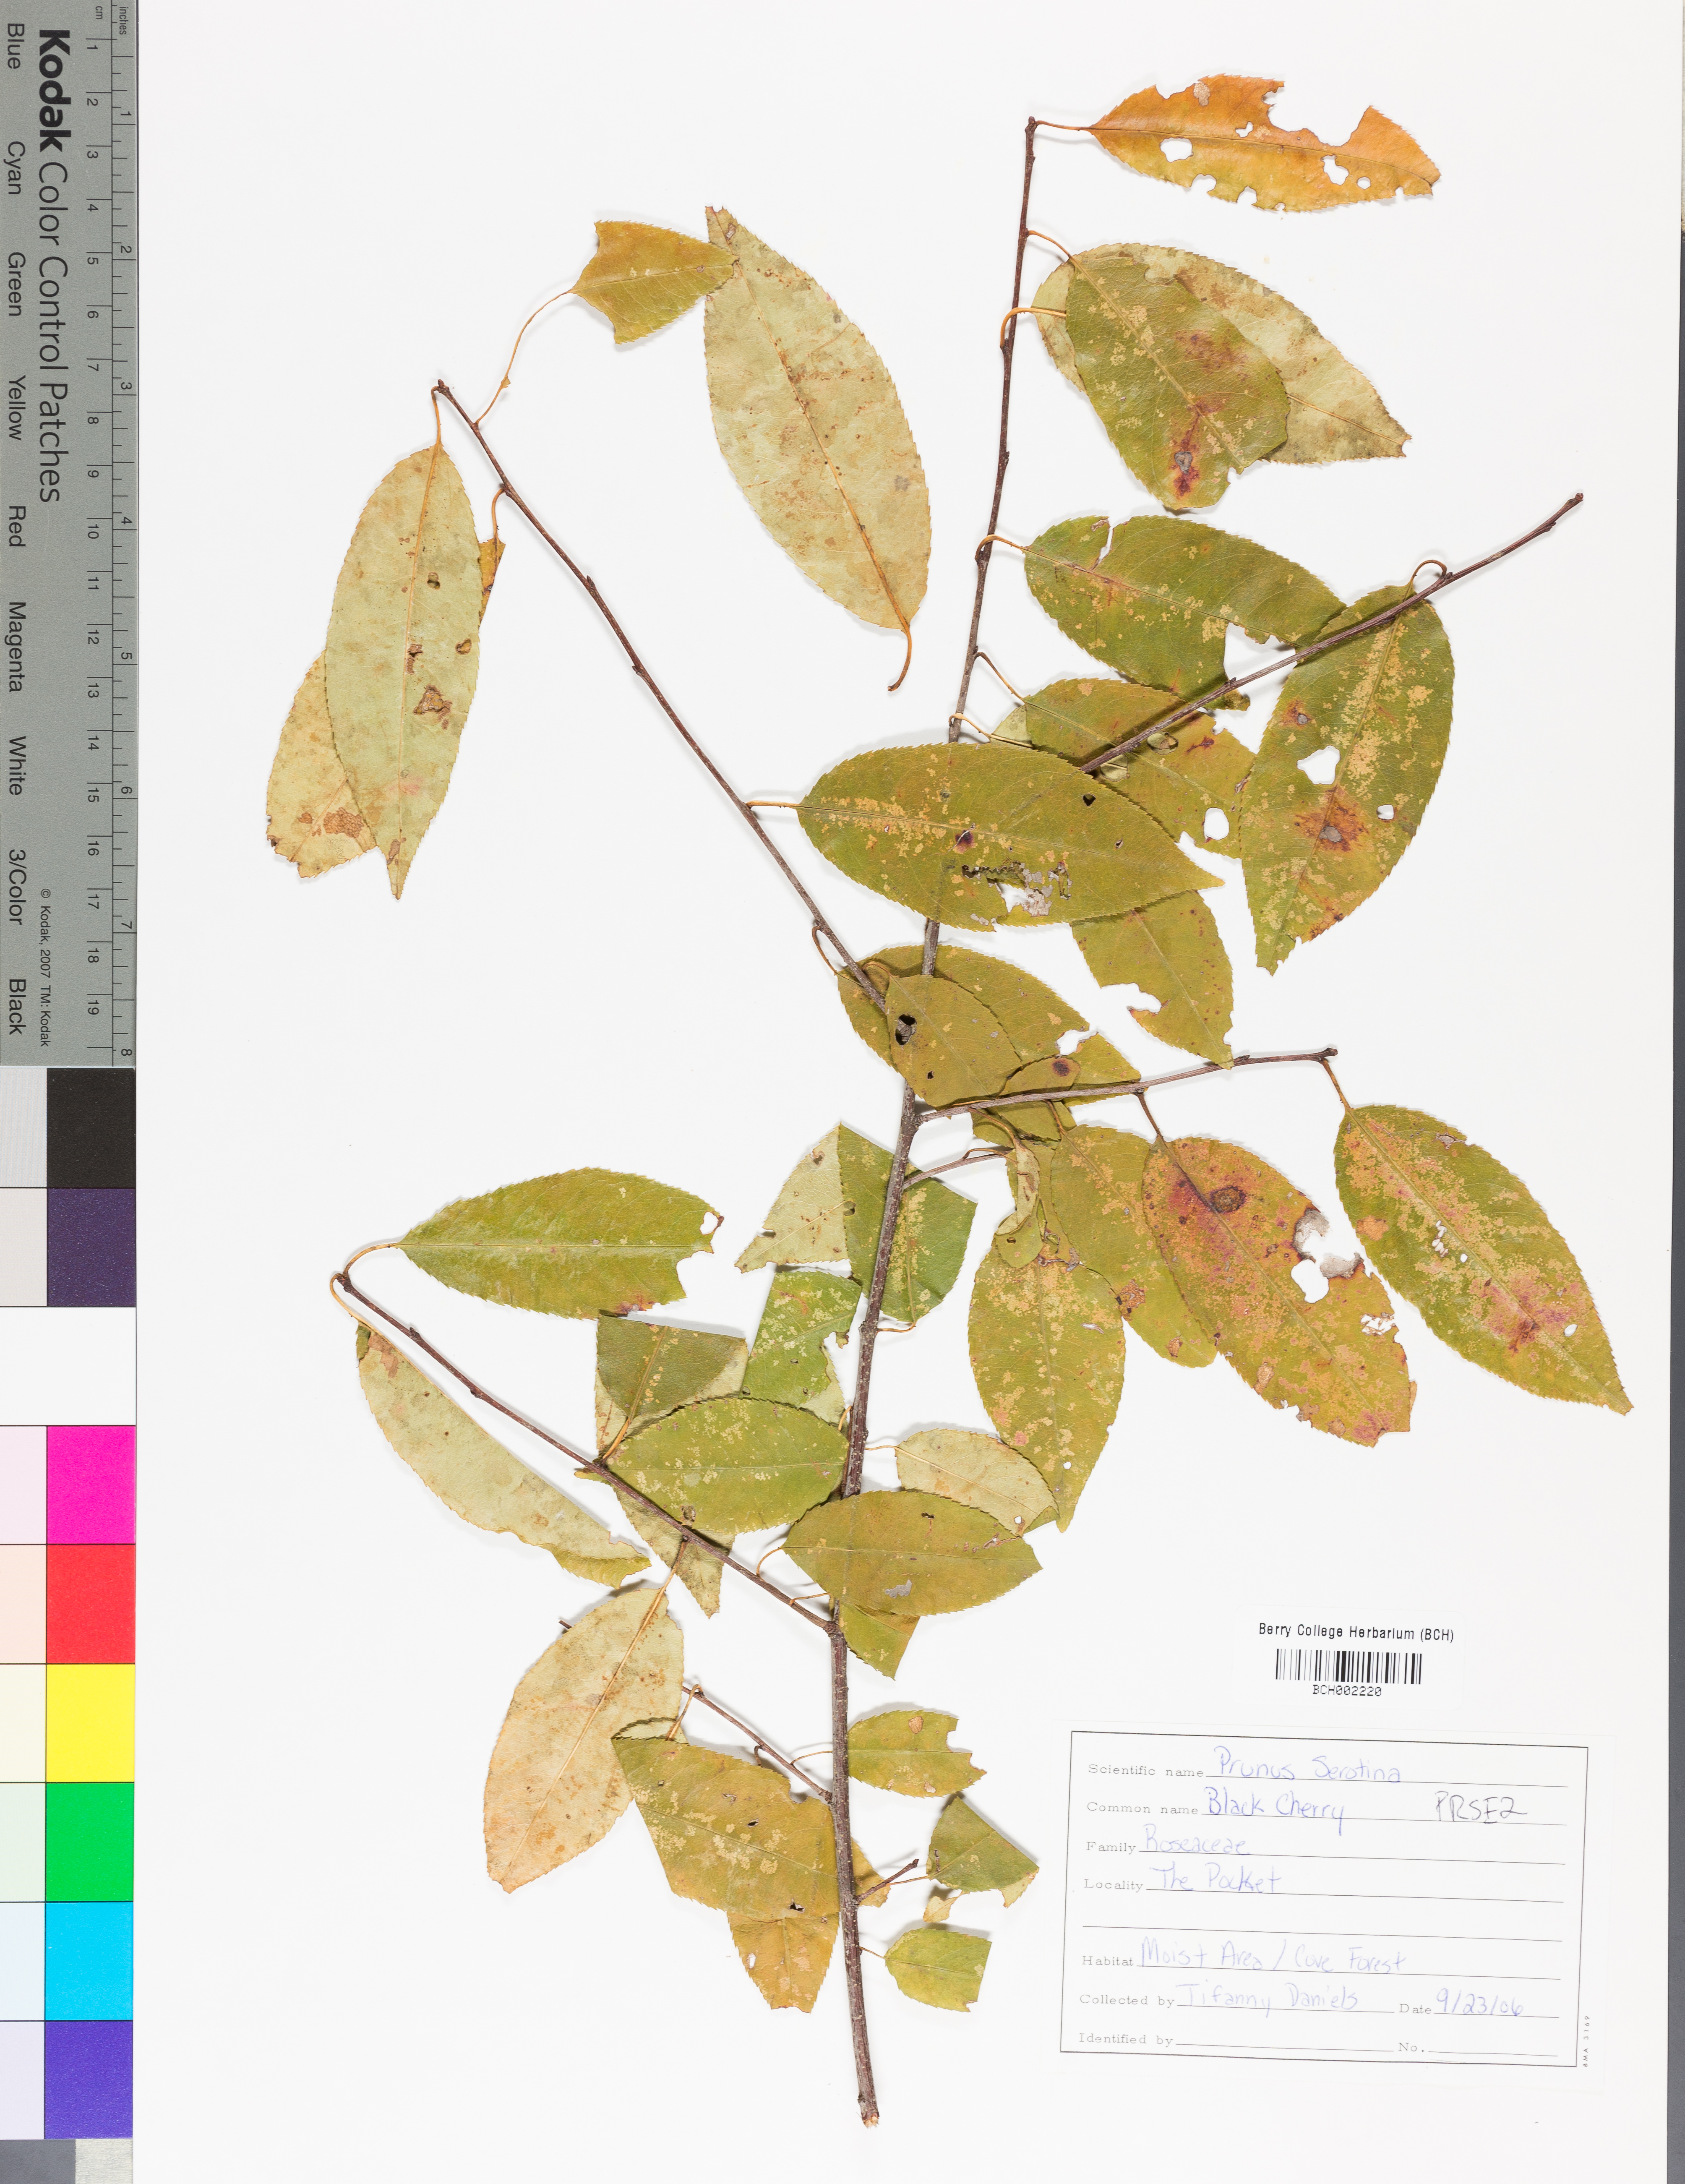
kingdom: Plantae
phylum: Tracheophyta
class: Magnoliopsida
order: Rosales
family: Rosaceae
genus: Prunus
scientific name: Prunus serotina
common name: Black cherry
